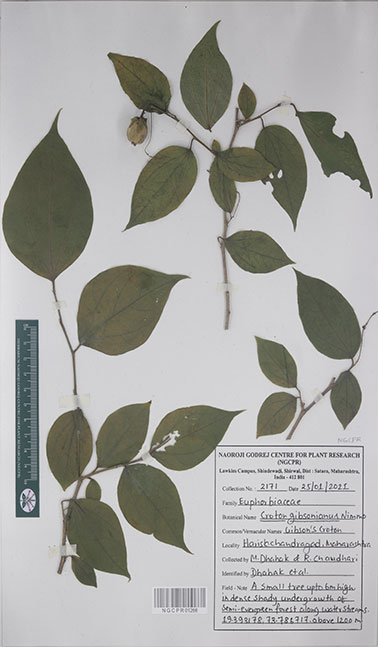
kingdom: Plantae
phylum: Tracheophyta
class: Magnoliopsida
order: Malpighiales
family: Euphorbiaceae
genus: Croton
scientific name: Croton gibsonianus
